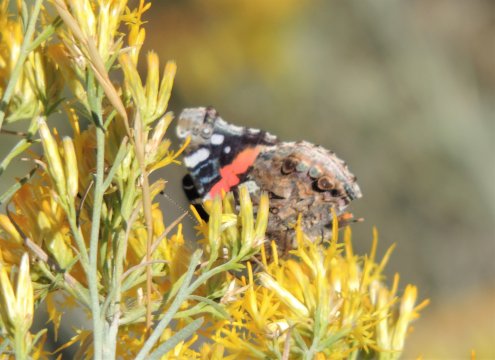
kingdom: Animalia
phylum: Arthropoda
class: Insecta
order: Lepidoptera
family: Nymphalidae
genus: Vanessa
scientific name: Vanessa atalanta
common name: Red Admiral
